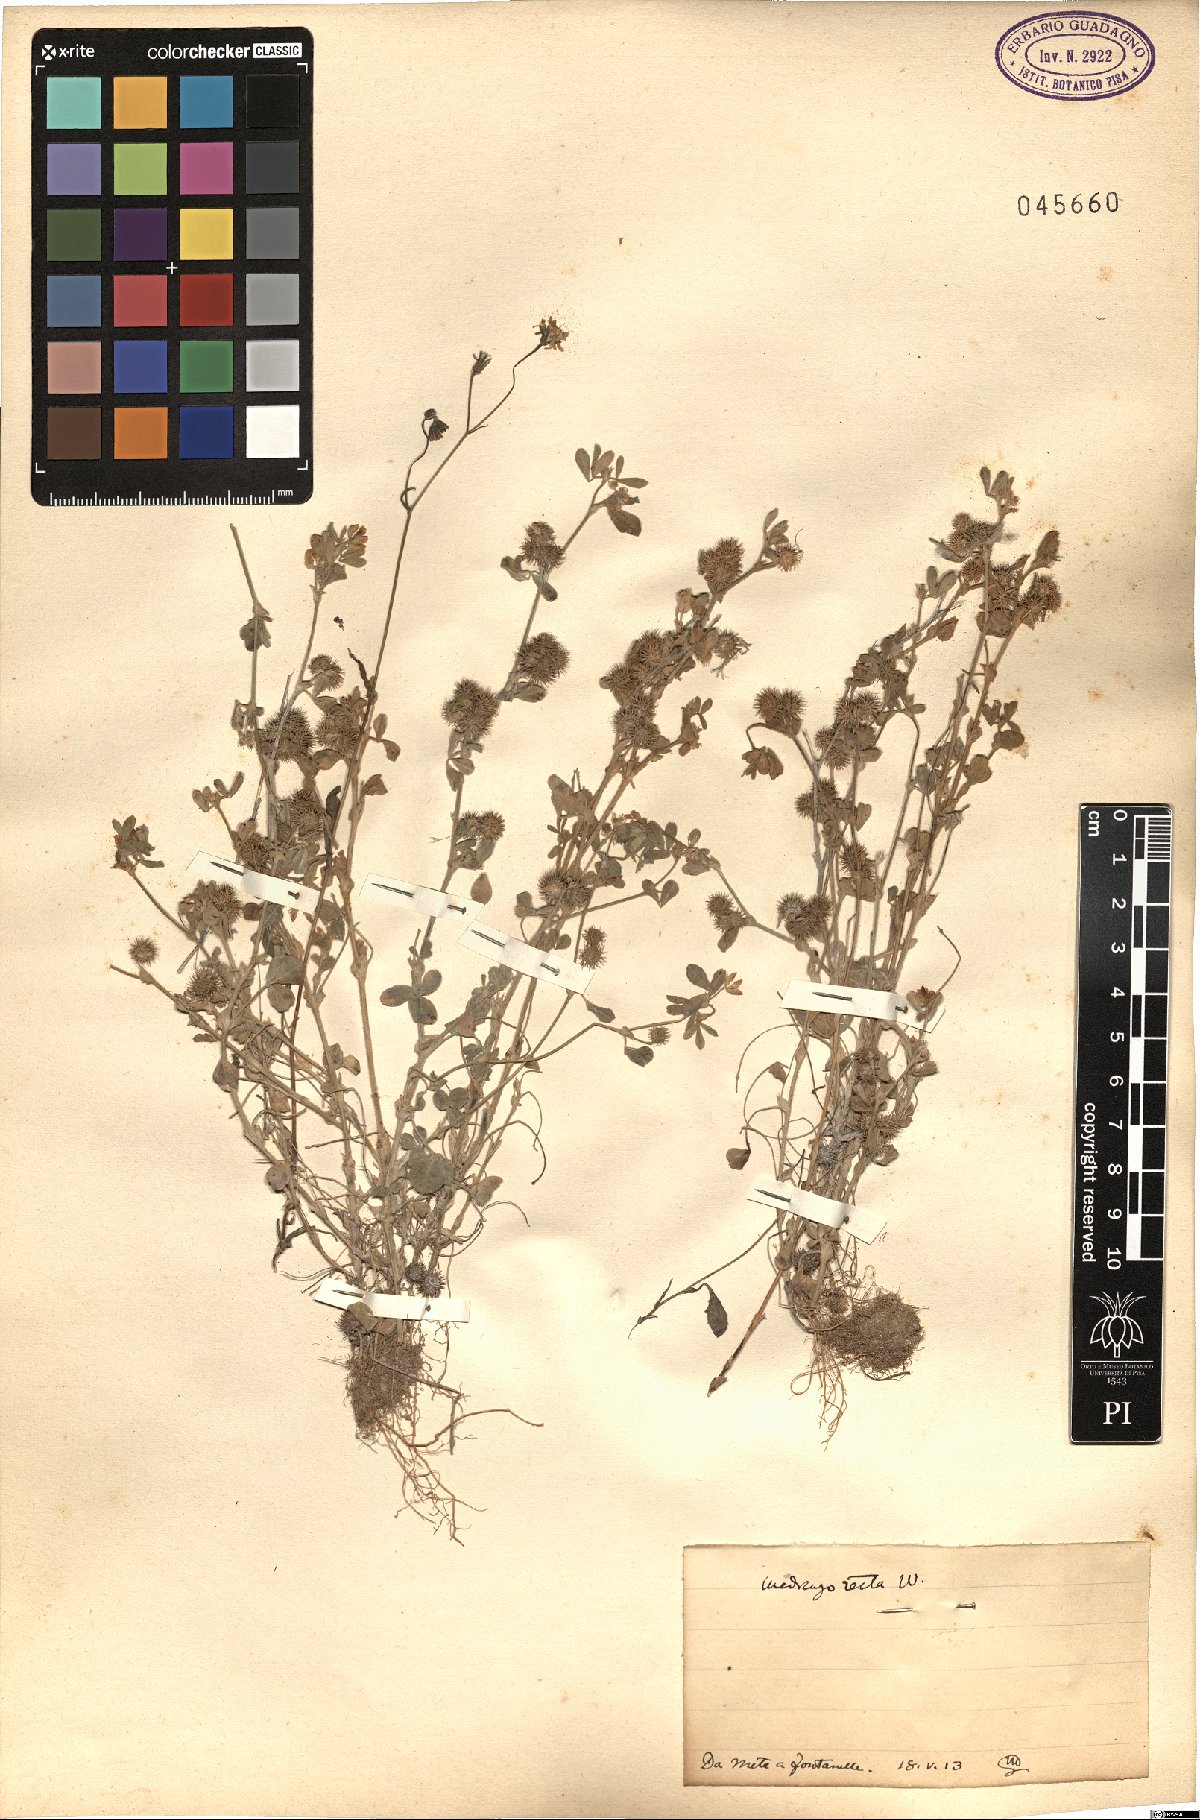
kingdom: Plantae
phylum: Tracheophyta
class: Magnoliopsida
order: Fabales
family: Fabaceae
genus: Medicago
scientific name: Medicago minima
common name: Little bur-clover
